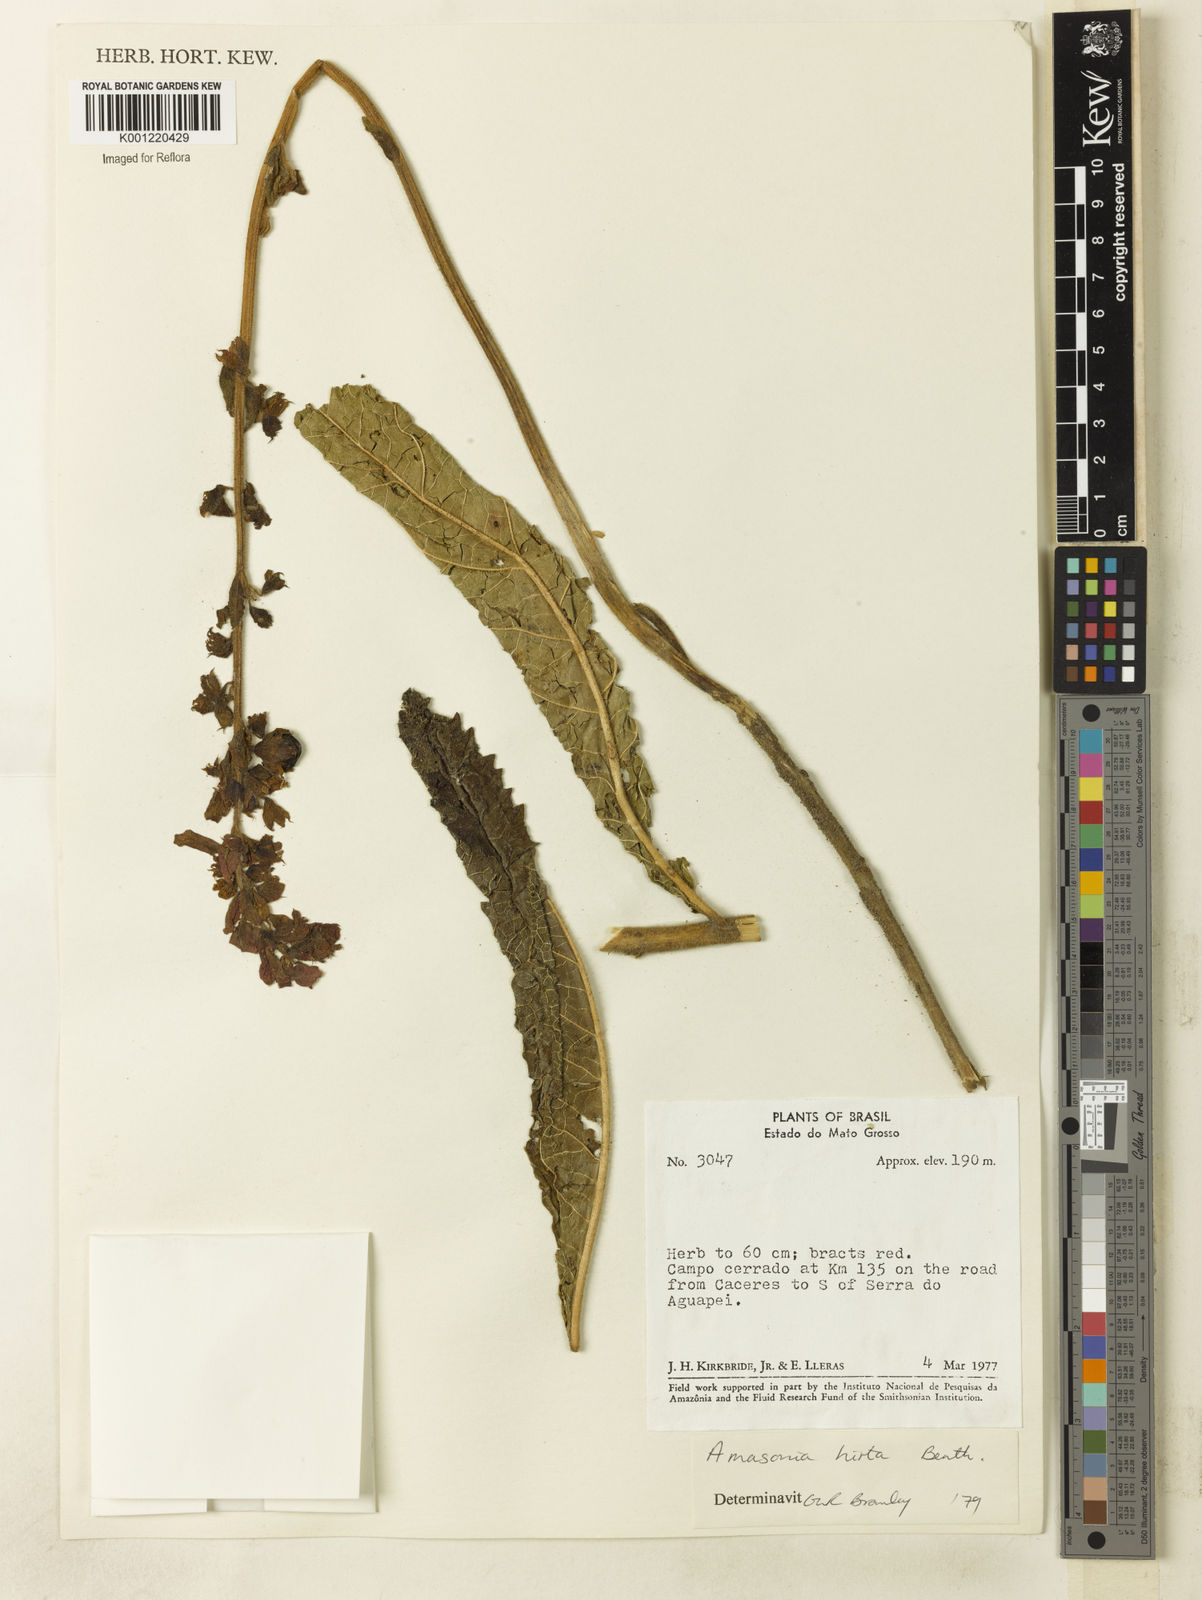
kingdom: Plantae
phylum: Tracheophyta
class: Magnoliopsida
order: Lamiales
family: Lamiaceae
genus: Amasonia
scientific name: Amasonia hirta
